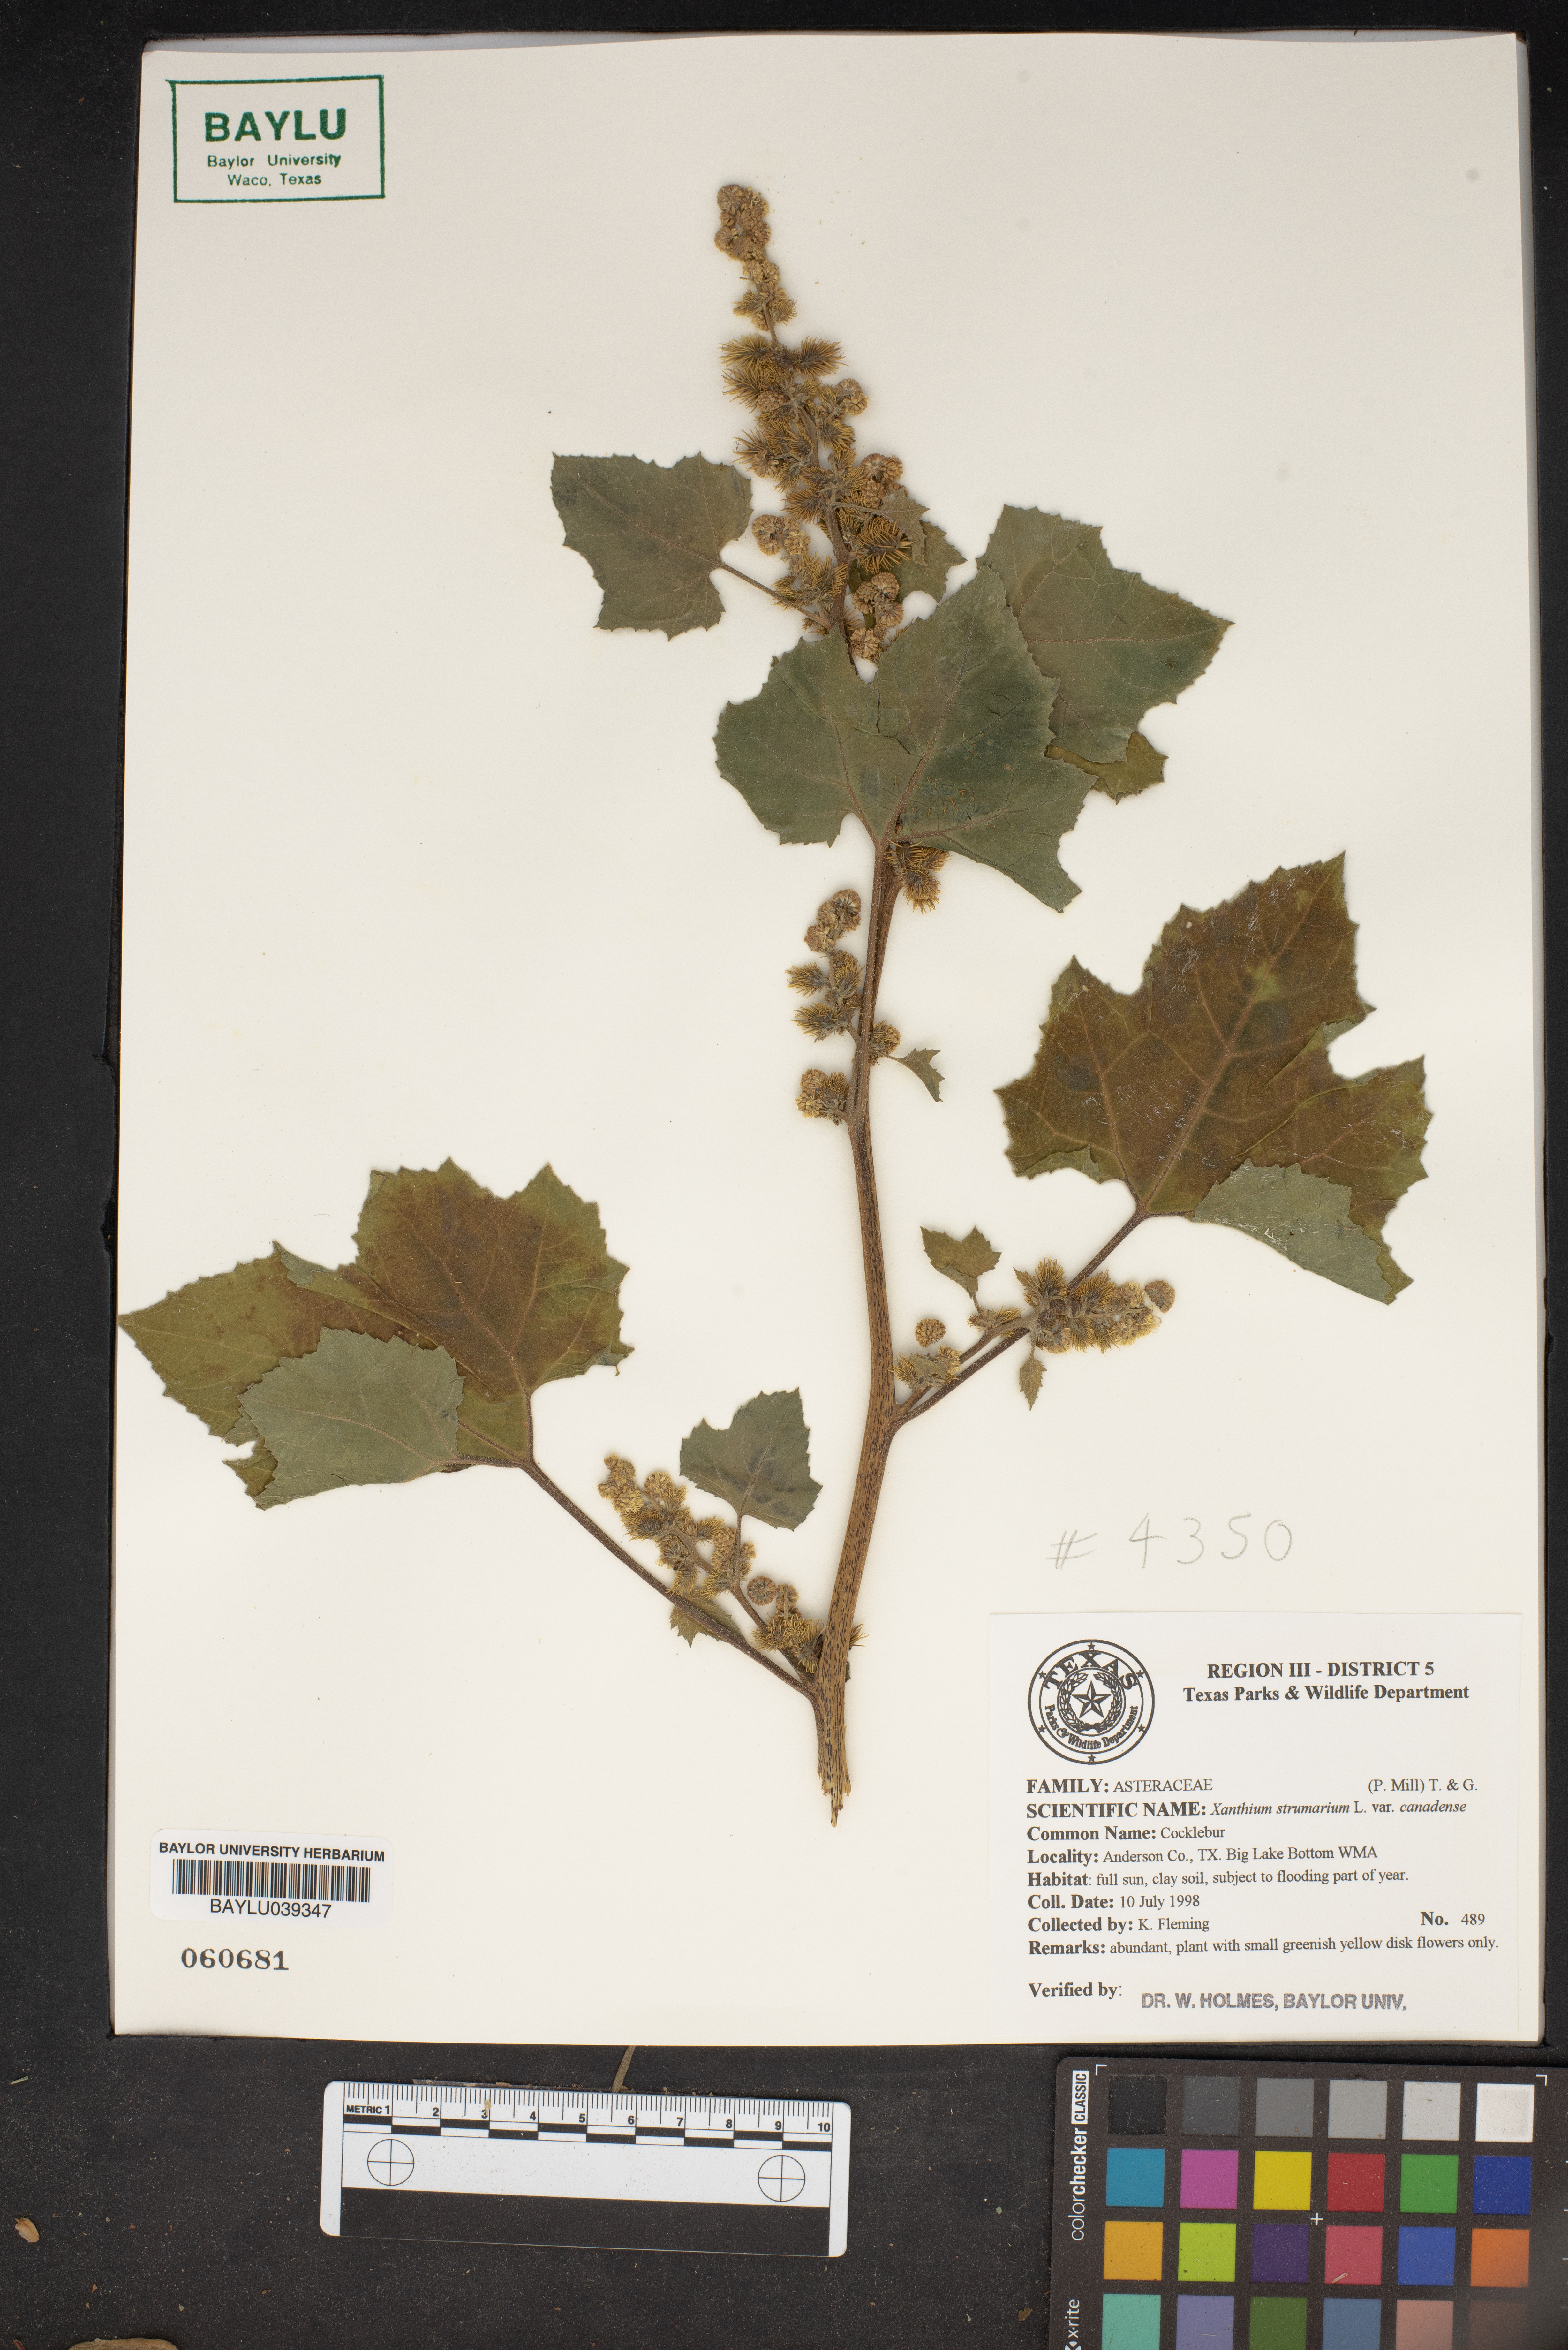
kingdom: Plantae
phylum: Tracheophyta
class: Magnoliopsida
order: Asterales
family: Asteraceae
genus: Xanthium
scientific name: Xanthium orientale
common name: Californian burr
